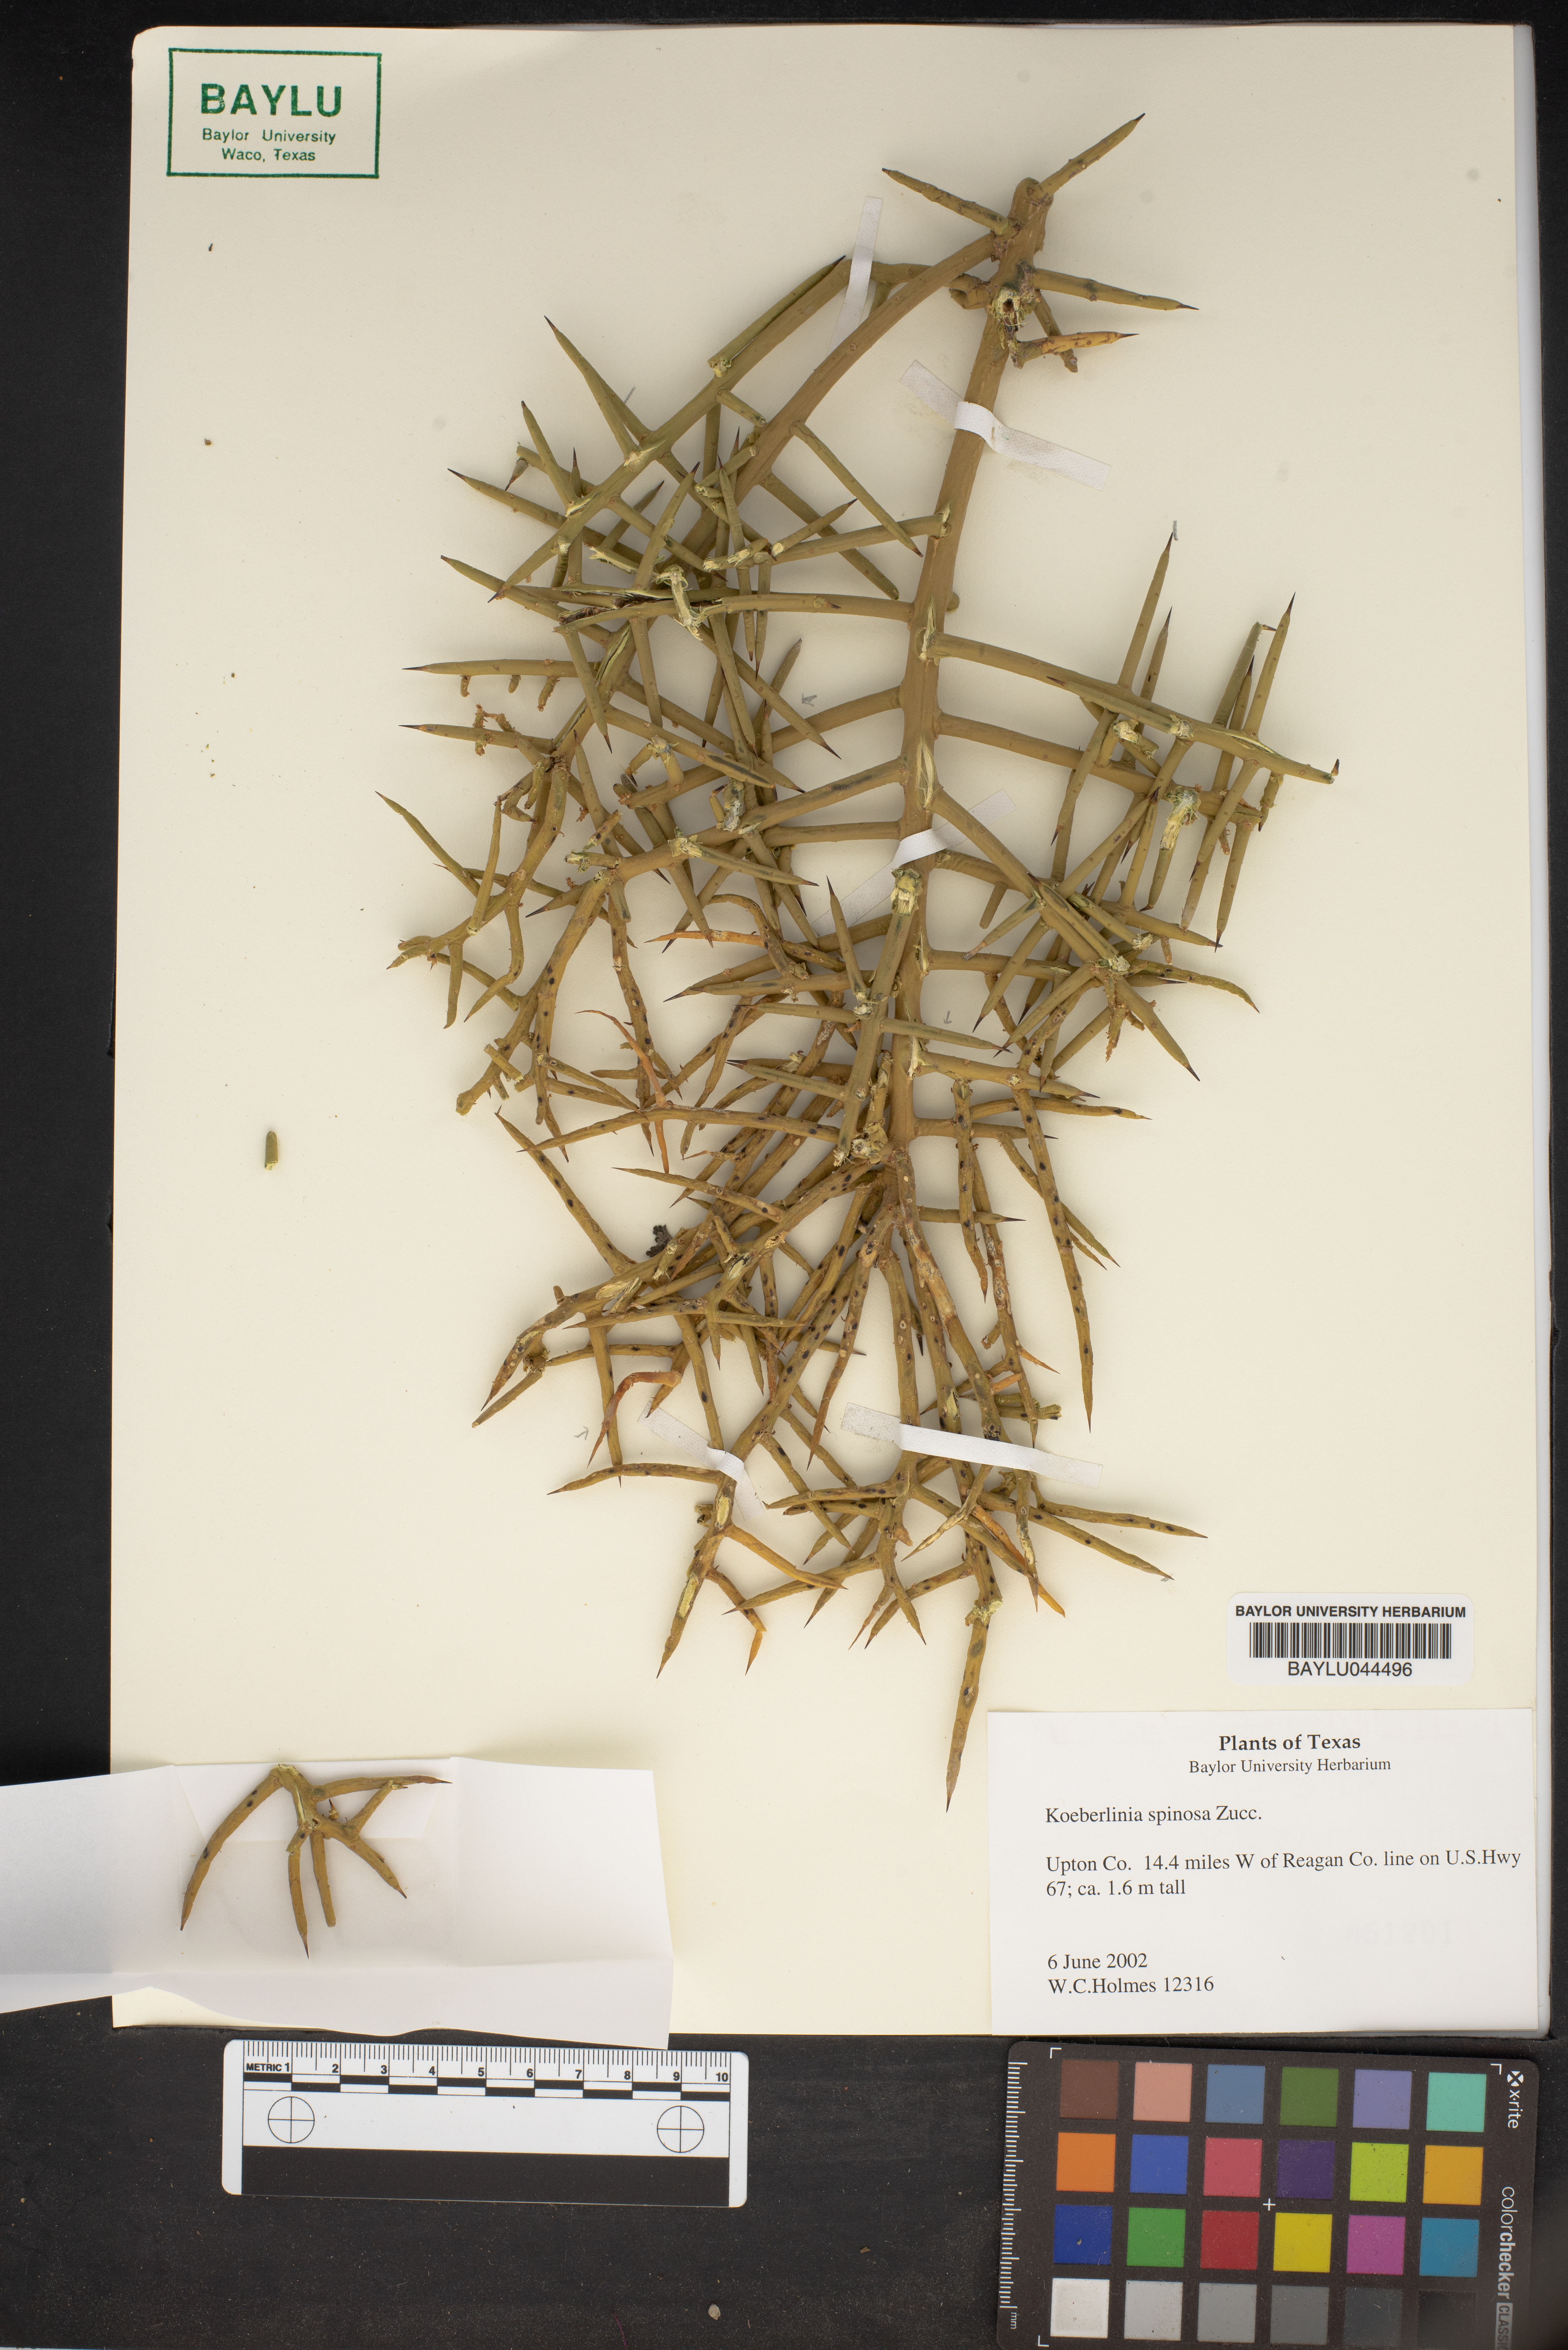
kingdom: Plantae
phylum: Tracheophyta
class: Magnoliopsida
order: Brassicales
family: Koeberliniaceae
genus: Koeberlinia
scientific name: Koeberlinia spinosa
